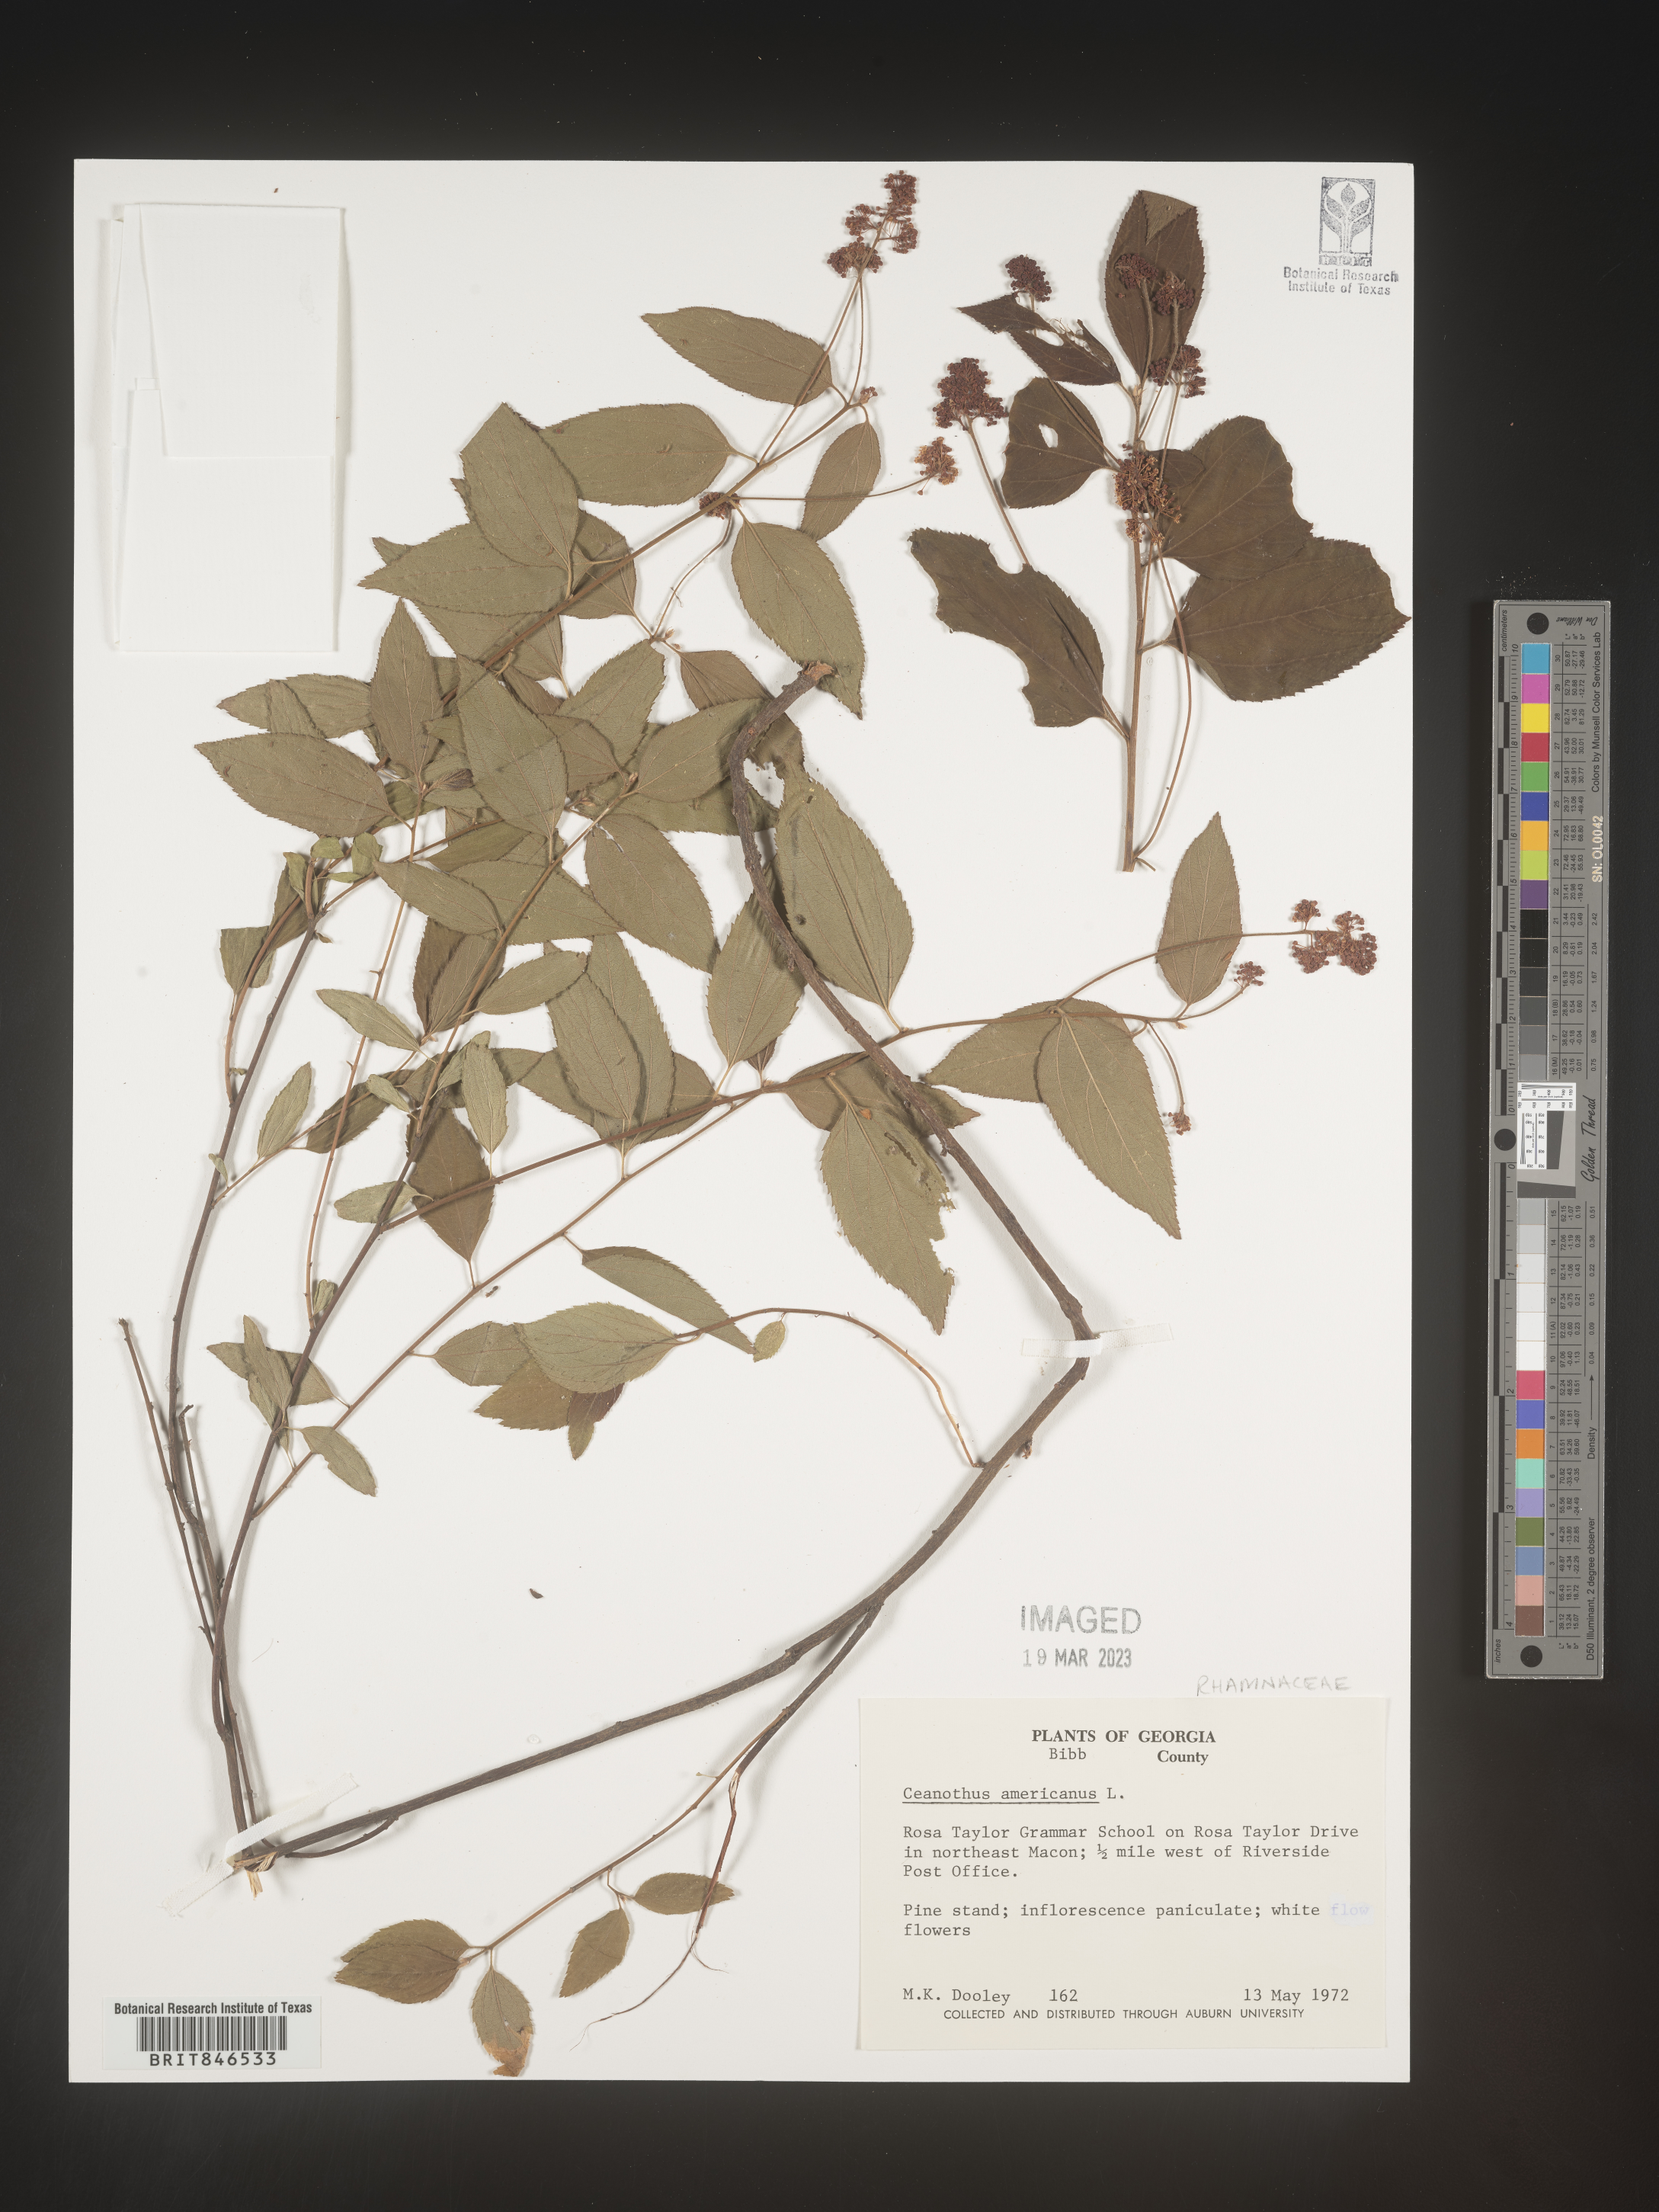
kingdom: Plantae
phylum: Tracheophyta
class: Magnoliopsida
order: Rosales
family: Rhamnaceae
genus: Ceanothus
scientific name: Ceanothus americanus
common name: Redroot
